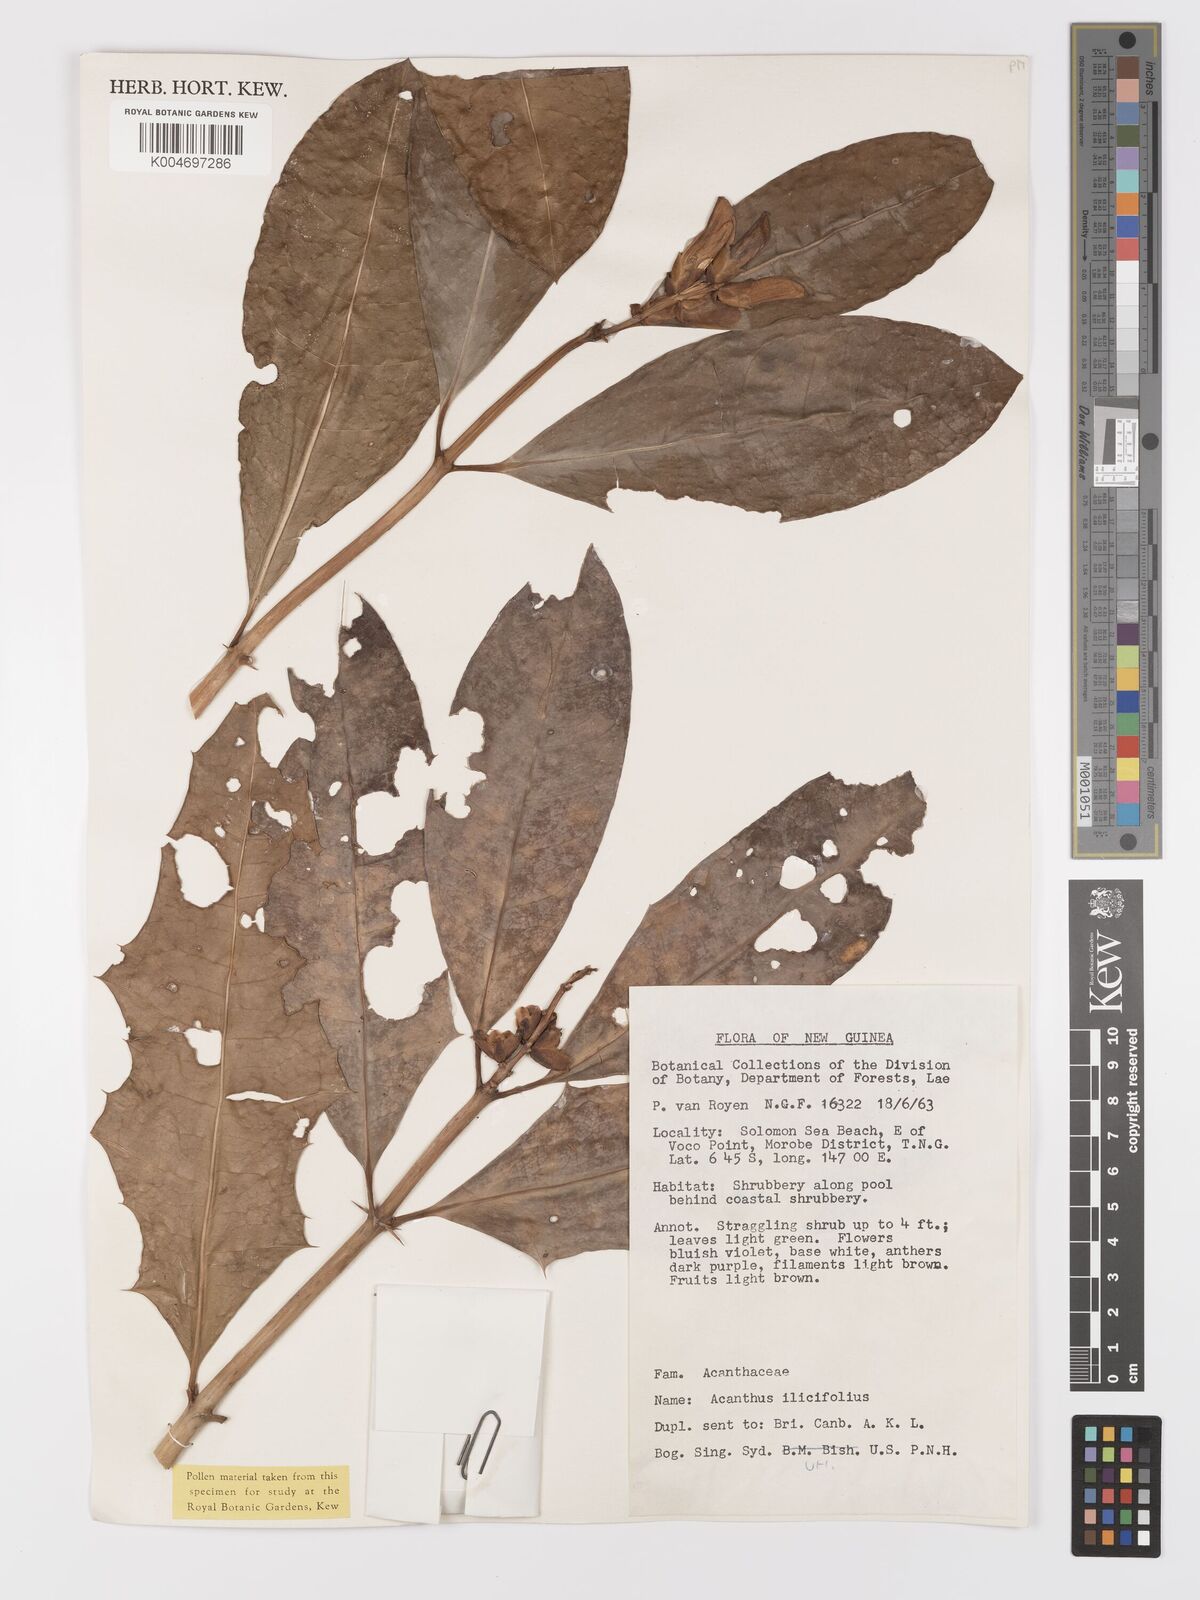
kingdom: Plantae
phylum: Tracheophyta
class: Magnoliopsida
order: Lamiales
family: Acanthaceae
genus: Acanthus
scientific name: Acanthus ilicifolius
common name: Holy mangrove
